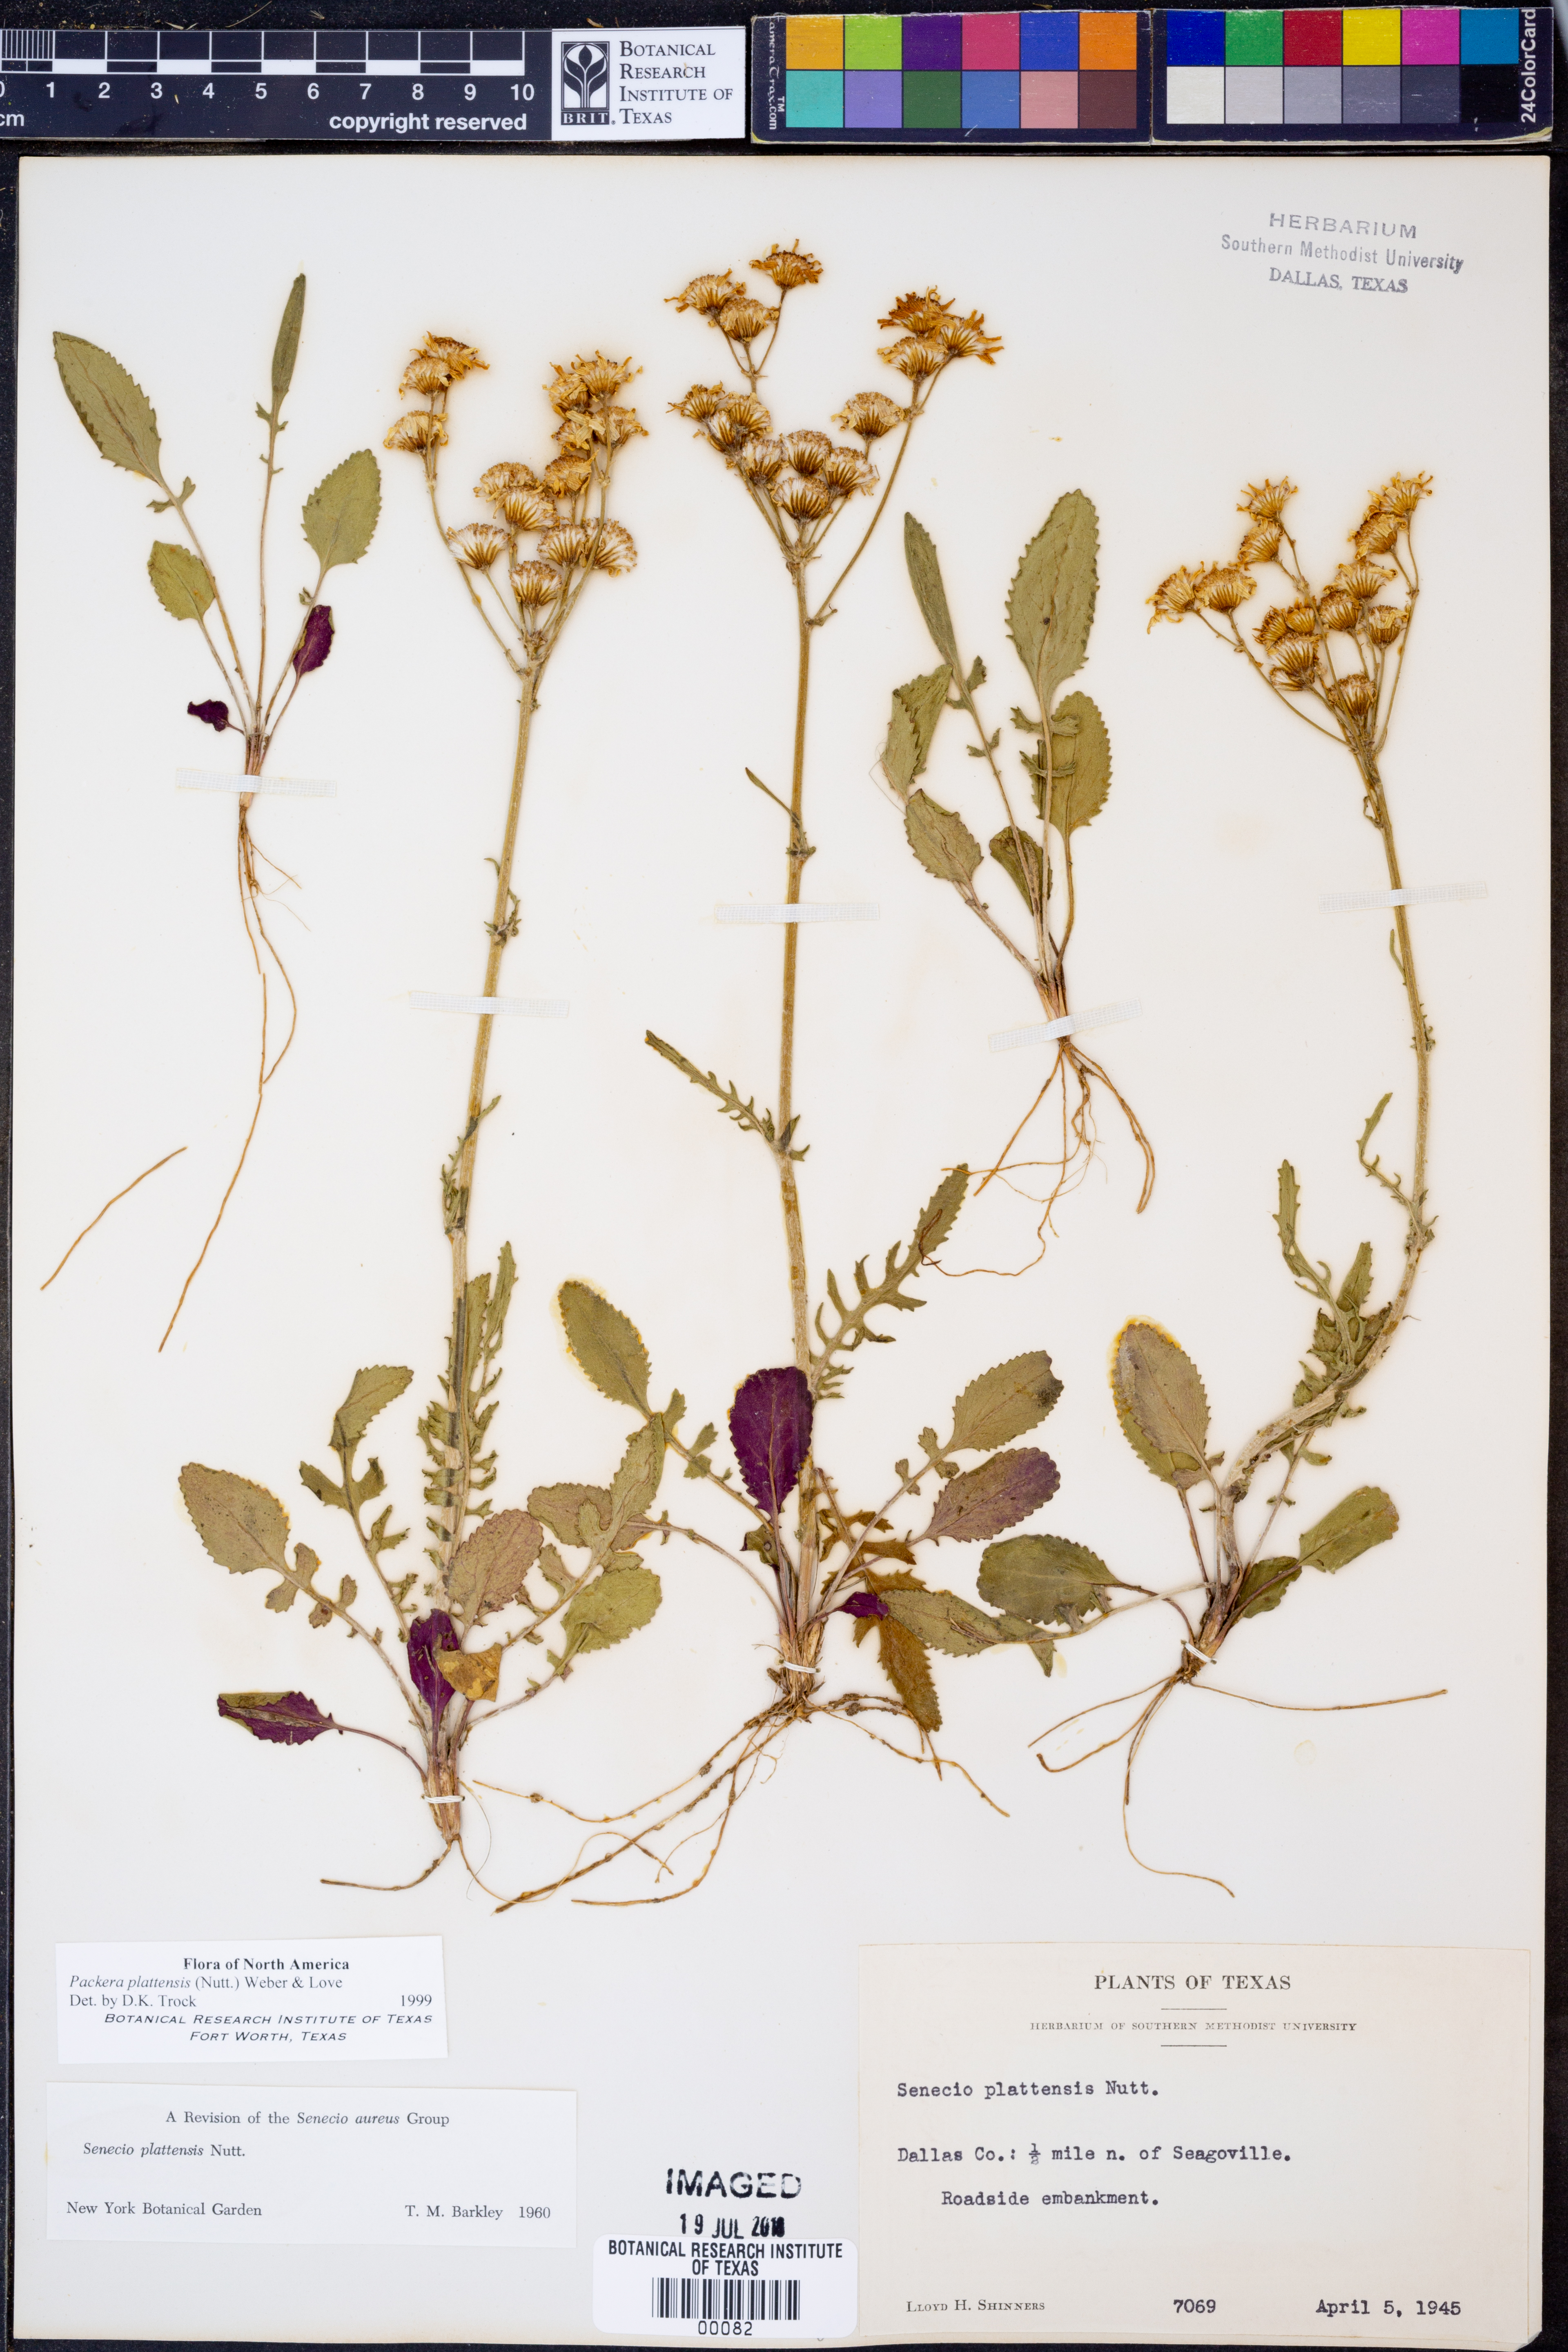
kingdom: Plantae
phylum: Tracheophyta
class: Magnoliopsida
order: Asterales
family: Asteraceae
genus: Packera
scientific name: Packera plattensis
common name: Prairie groundsel
